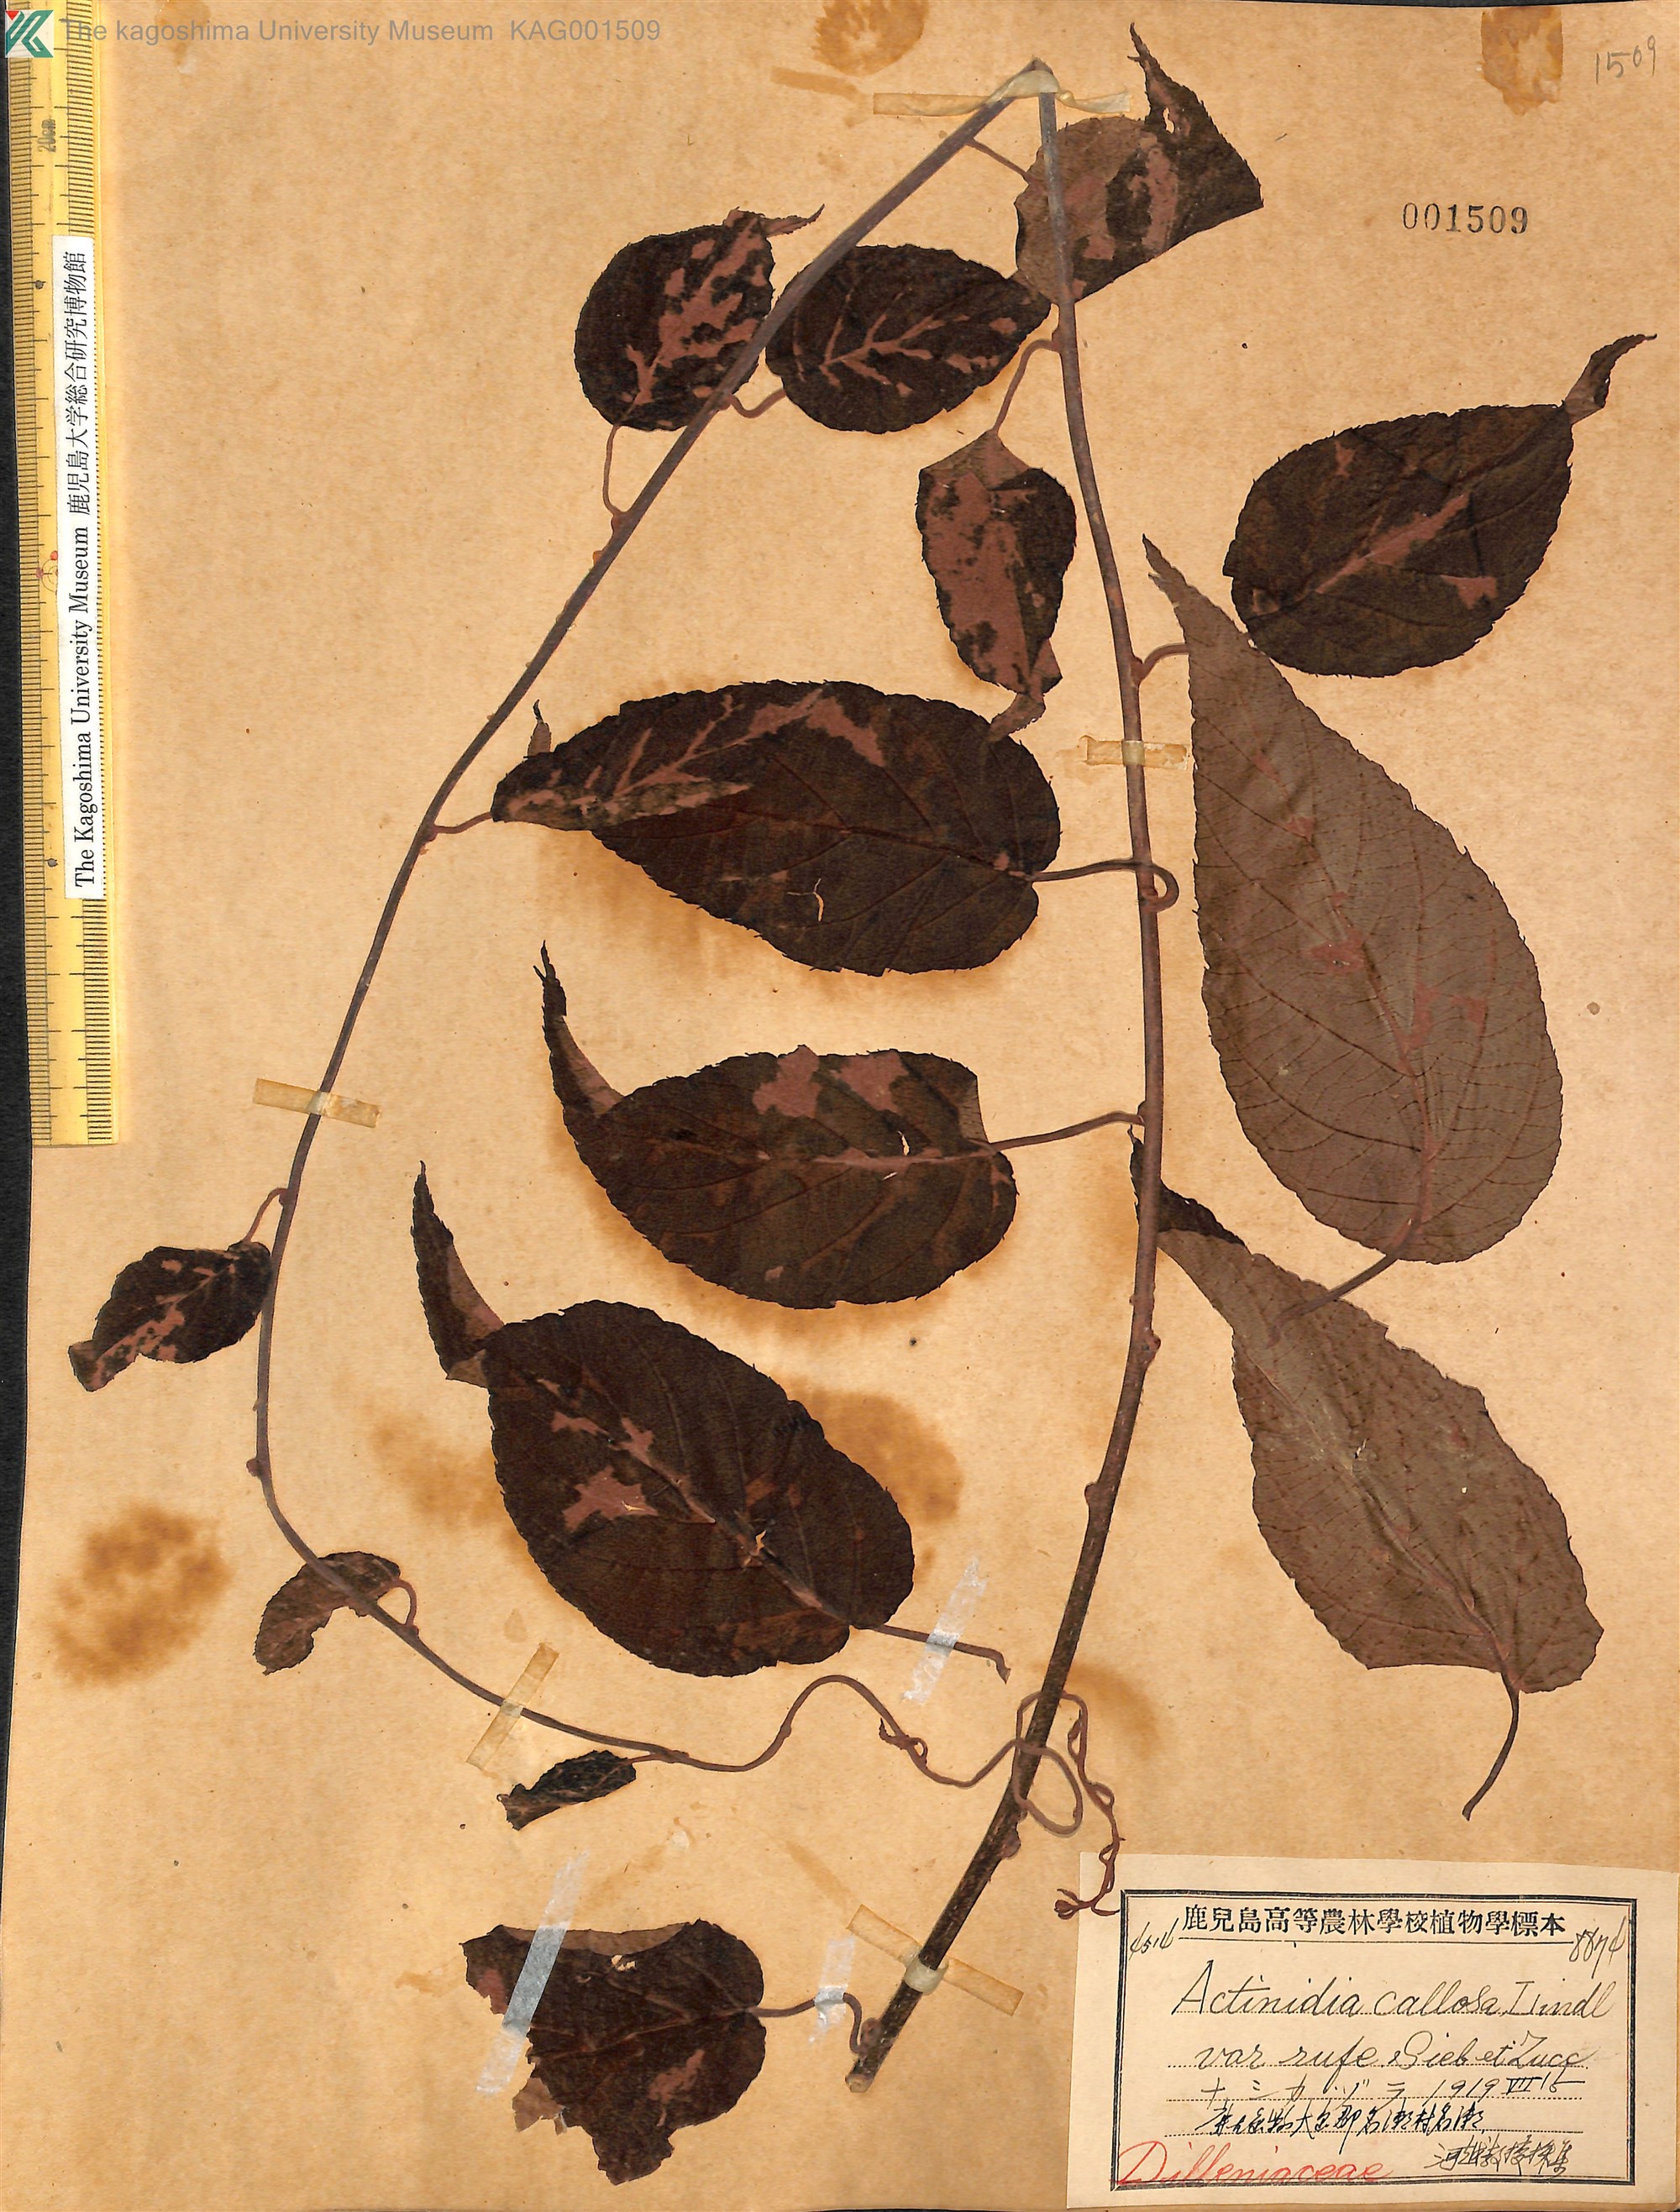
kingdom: Plantae
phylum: Tracheophyta
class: Magnoliopsida
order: Ericales
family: Actinidiaceae
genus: Actinidia
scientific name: Actinidia rufa
